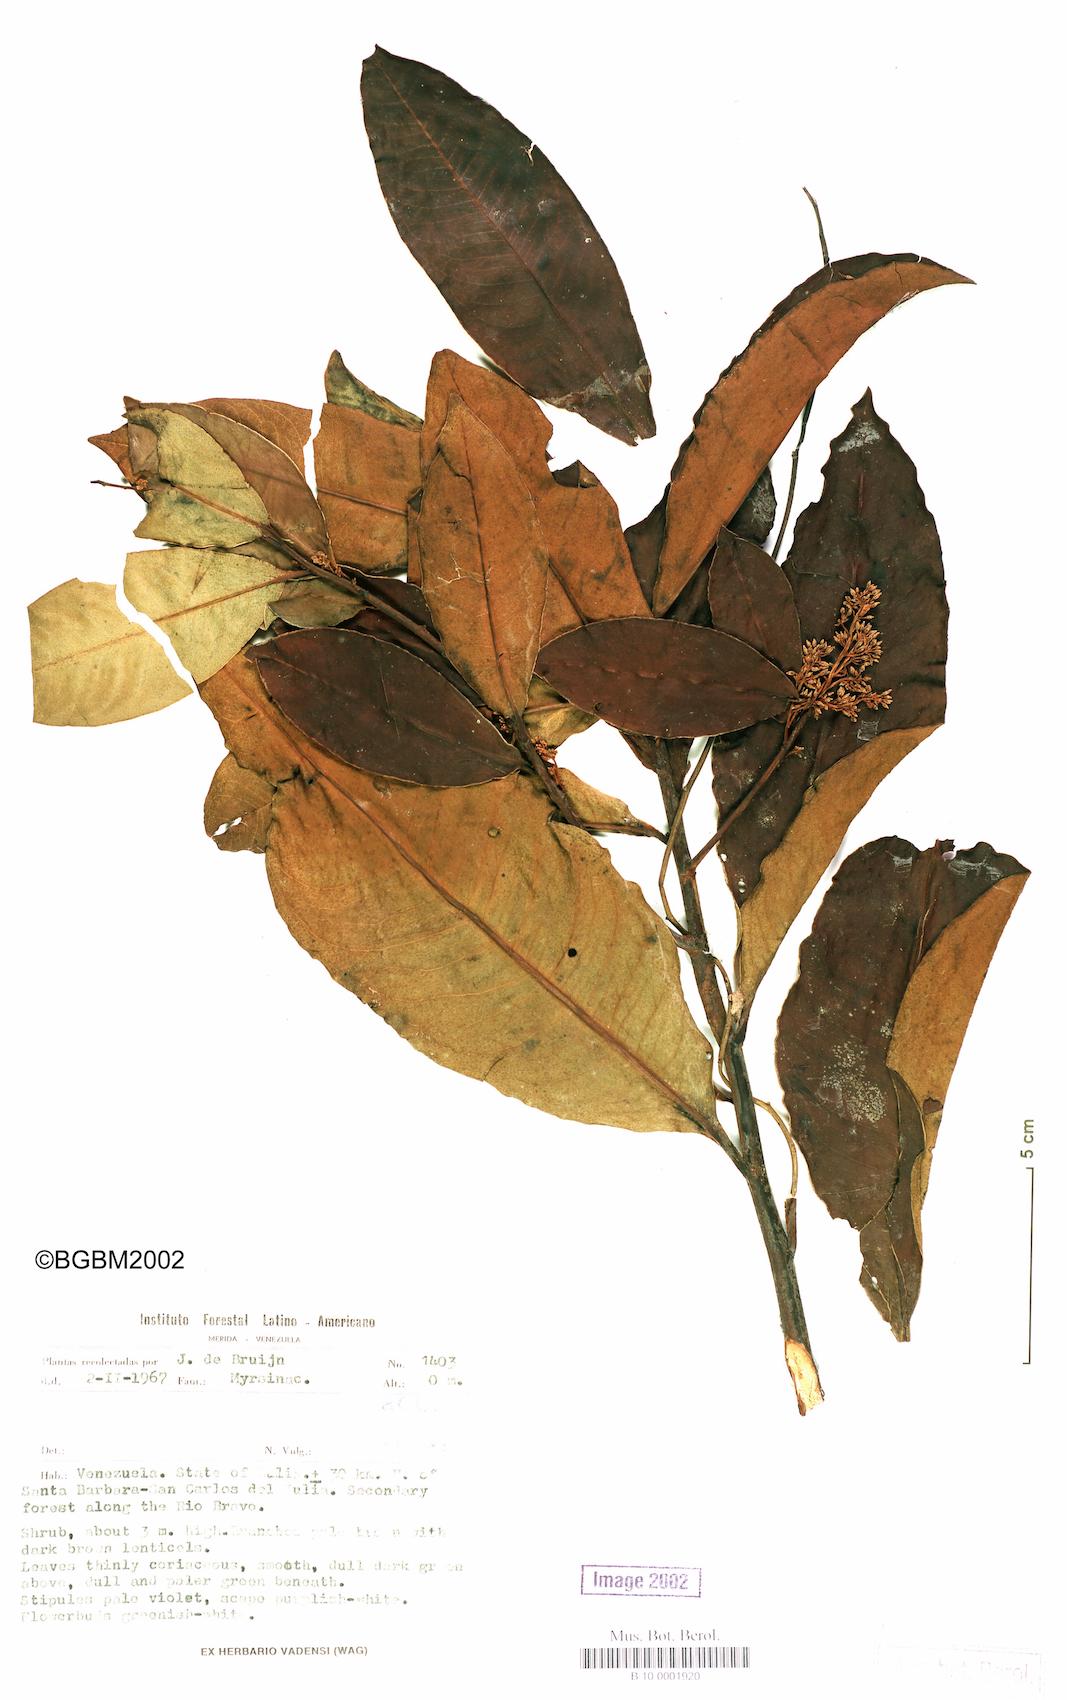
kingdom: Plantae
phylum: Tracheophyta
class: Magnoliopsida
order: Ericales
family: Primulaceae
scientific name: Primulaceae
